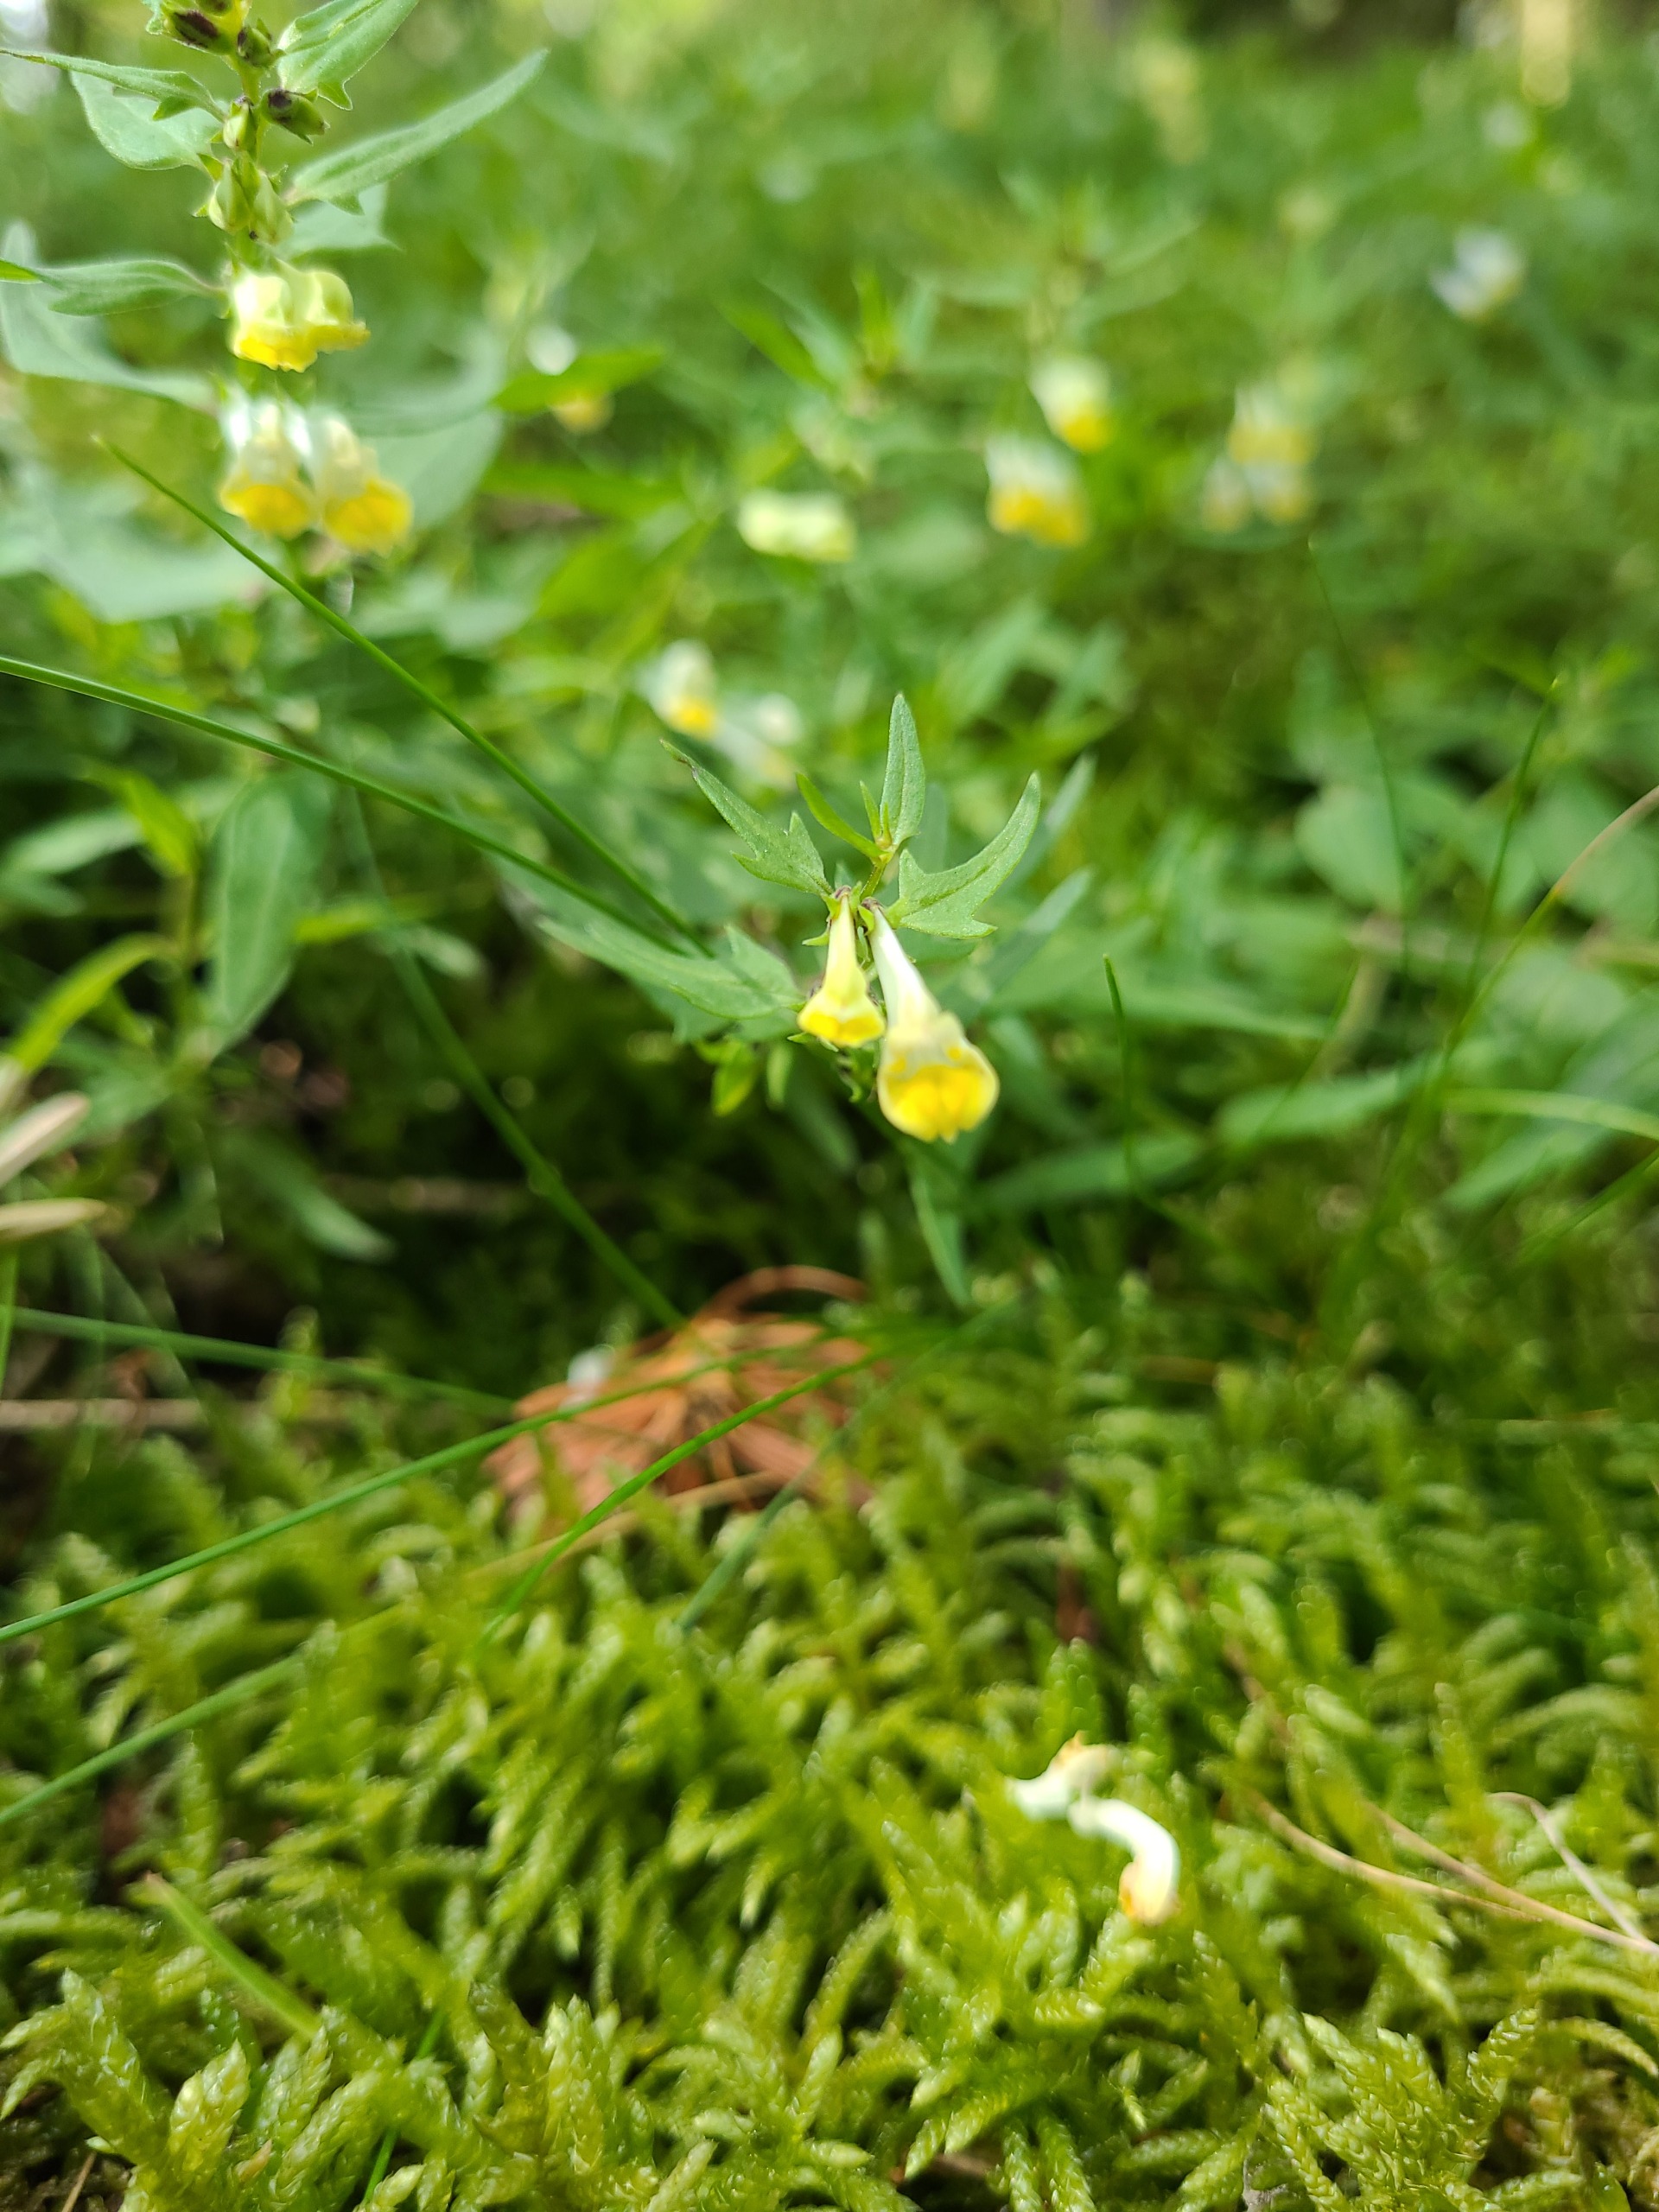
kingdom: Plantae
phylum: Tracheophyta
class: Magnoliopsida
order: Lamiales
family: Orobanchaceae
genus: Melampyrum
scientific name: Melampyrum pratense
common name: Almindelig kohvede
